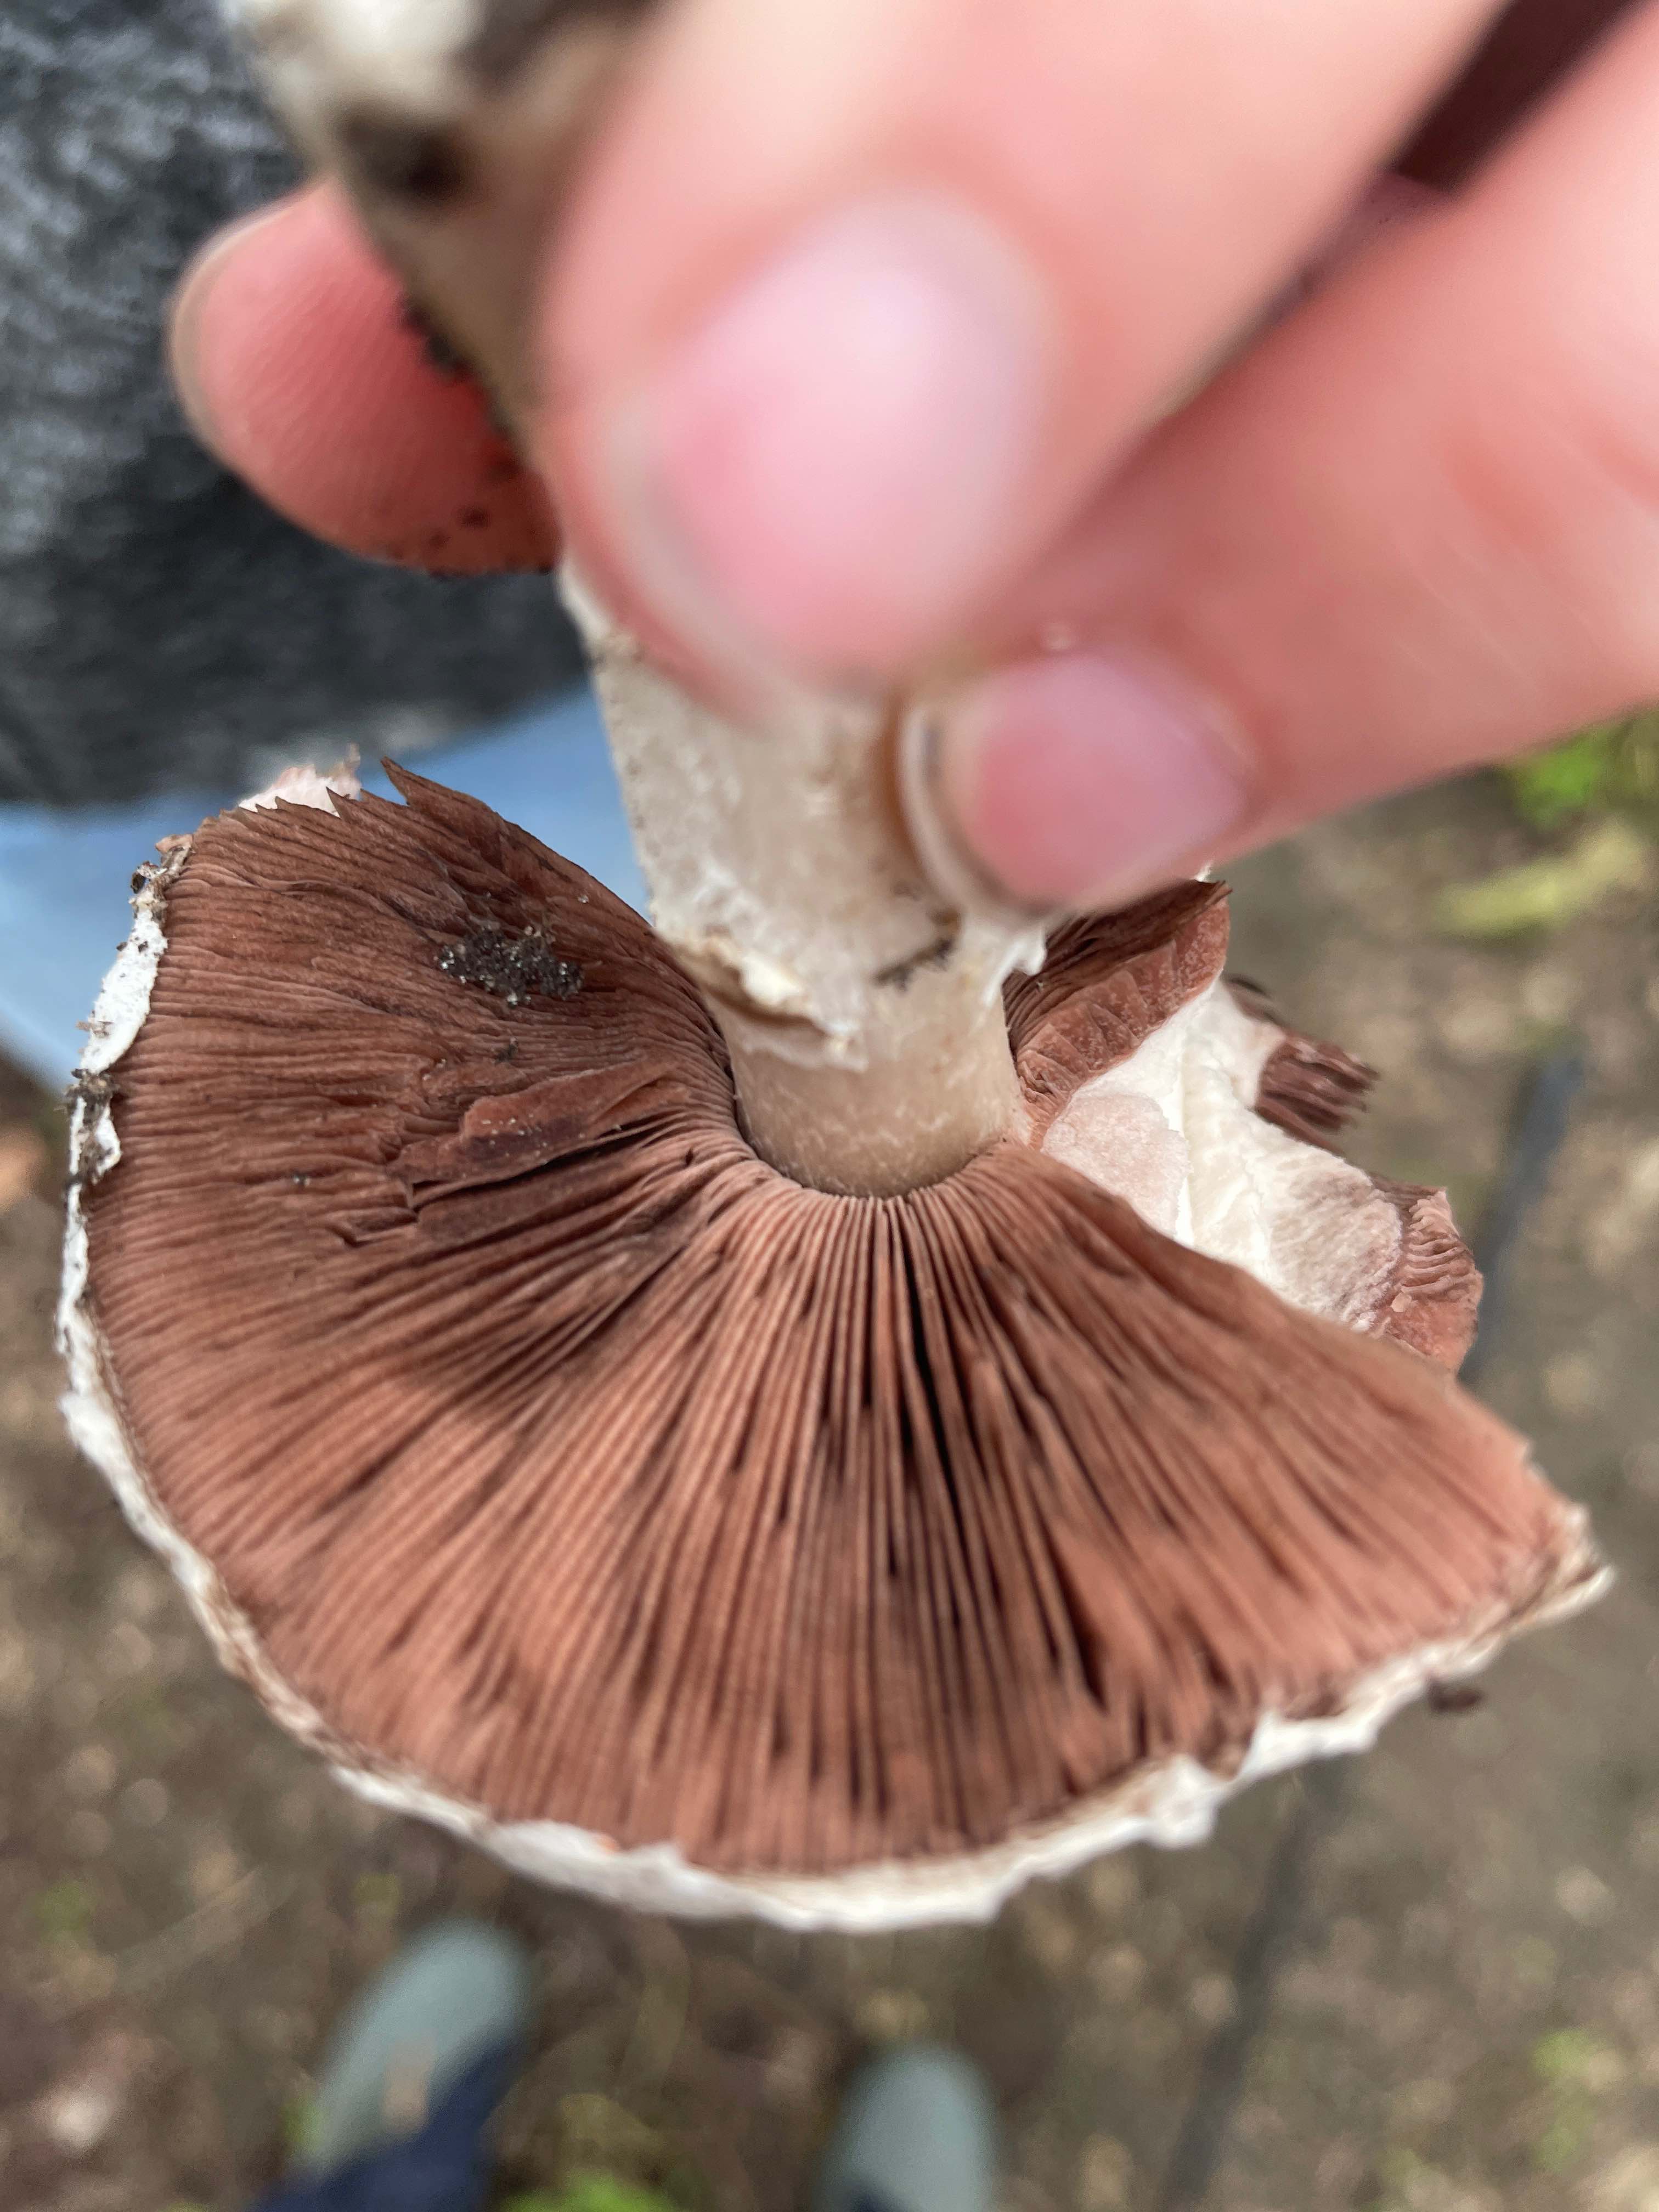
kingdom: Fungi
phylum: Basidiomycota
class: Agaricomycetes
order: Agaricales
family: Agaricaceae
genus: Agaricus
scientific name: Agaricus
